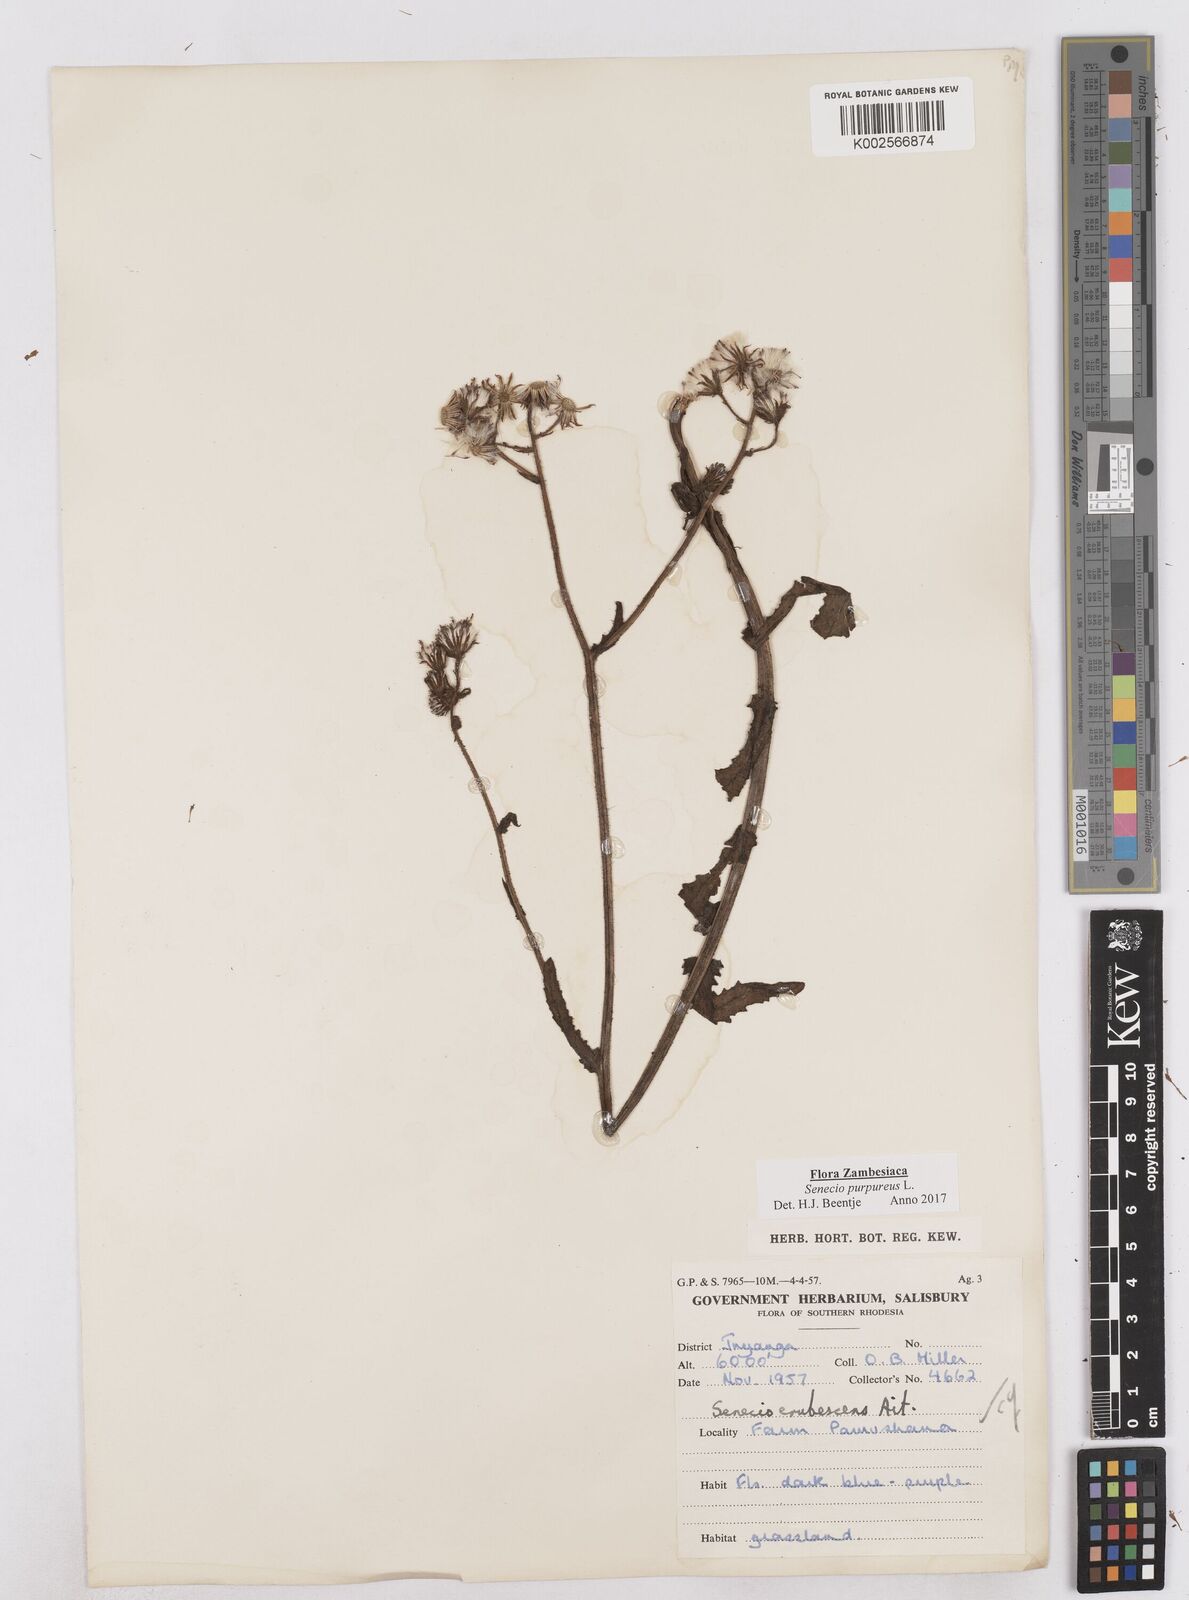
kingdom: Plantae
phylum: Tracheophyta
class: Magnoliopsida
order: Asterales
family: Asteraceae
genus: Senecio
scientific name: Senecio purpureus
